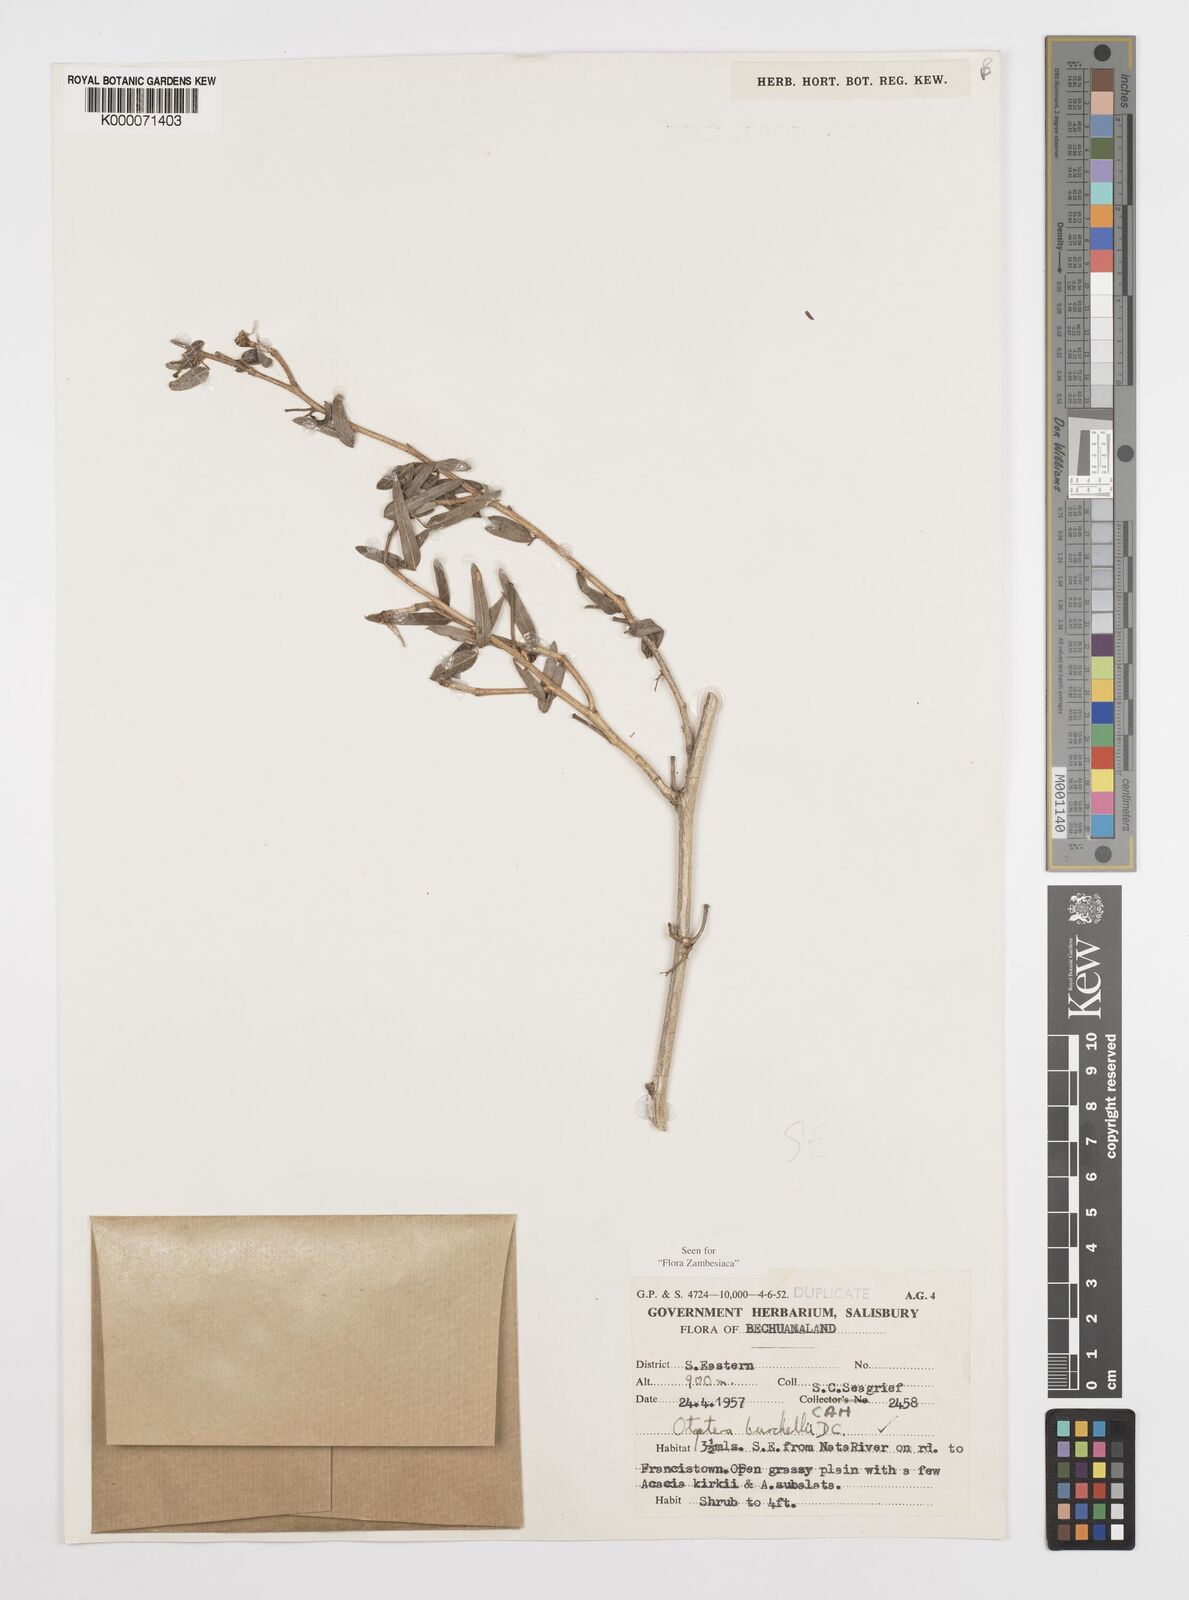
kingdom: Plantae
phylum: Tracheophyta
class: Magnoliopsida
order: Fabales
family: Fabaceae
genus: Otoptera
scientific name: Otoptera burchellii
